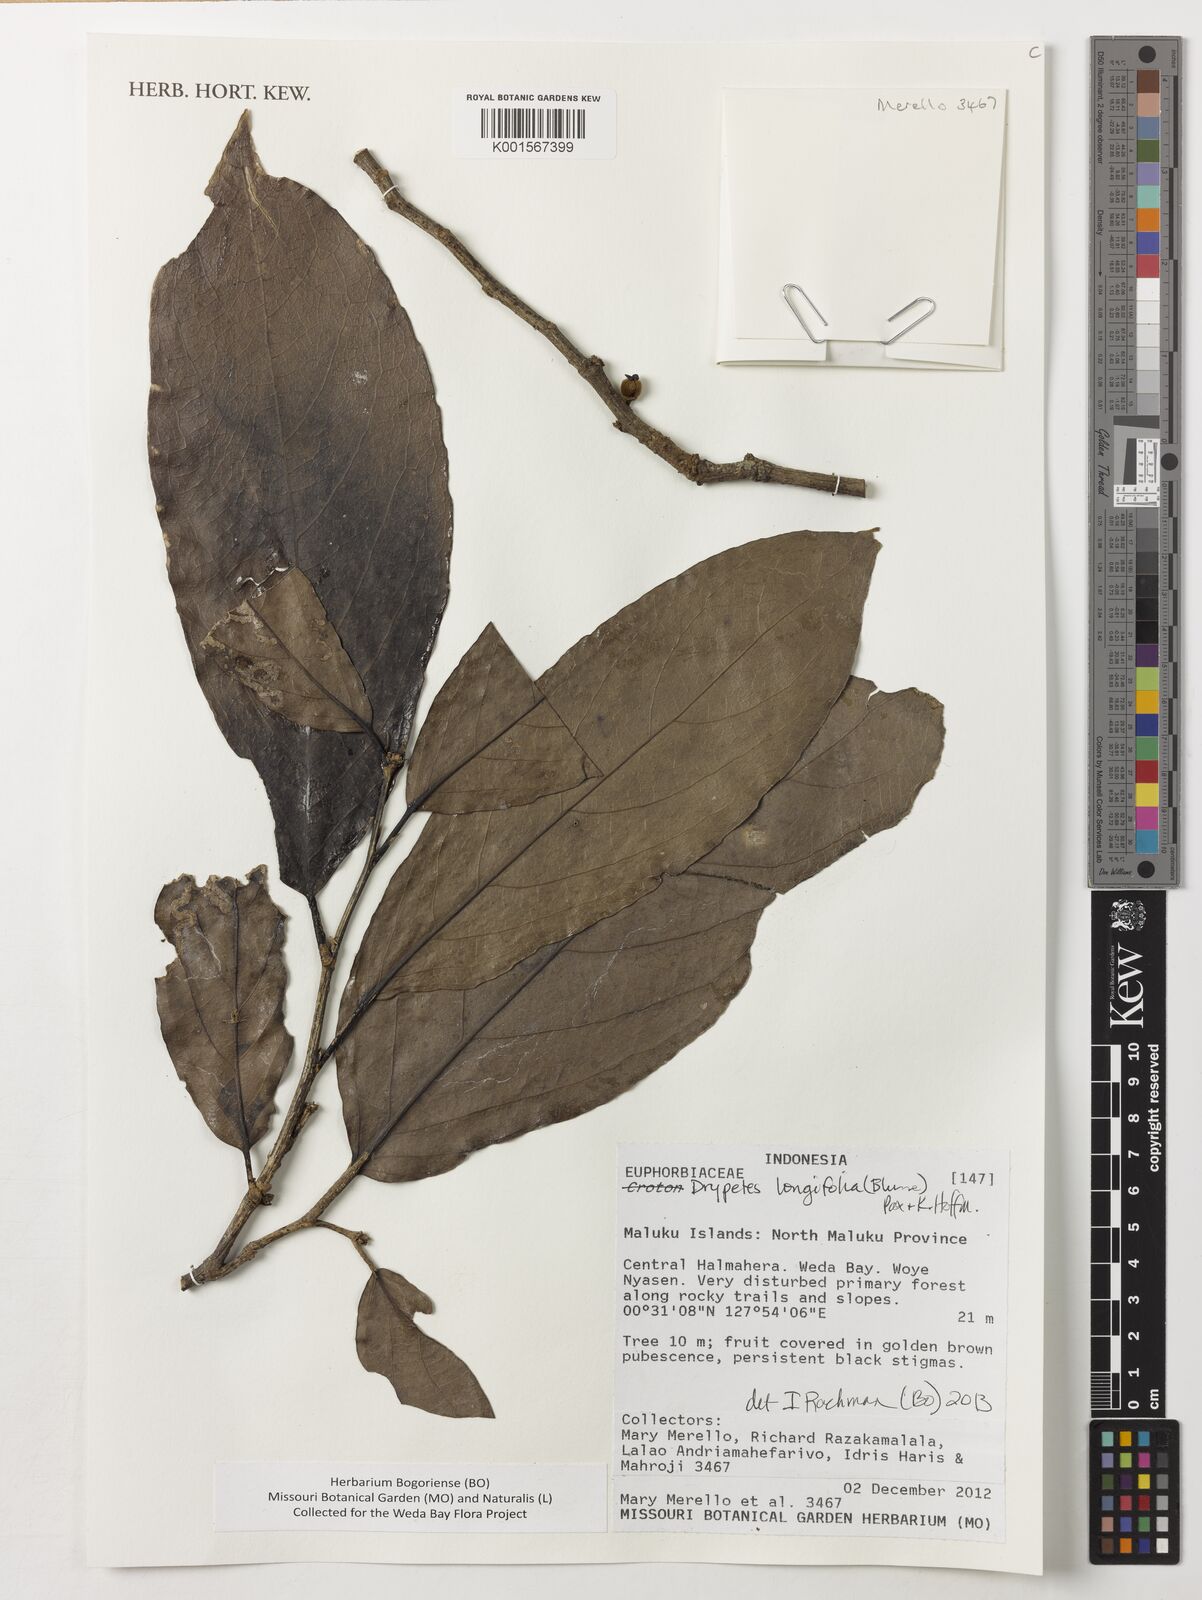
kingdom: Plantae
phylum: Tracheophyta
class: Magnoliopsida
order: Malpighiales
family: Putranjivaceae
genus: Drypetes
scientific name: Drypetes longifolia
